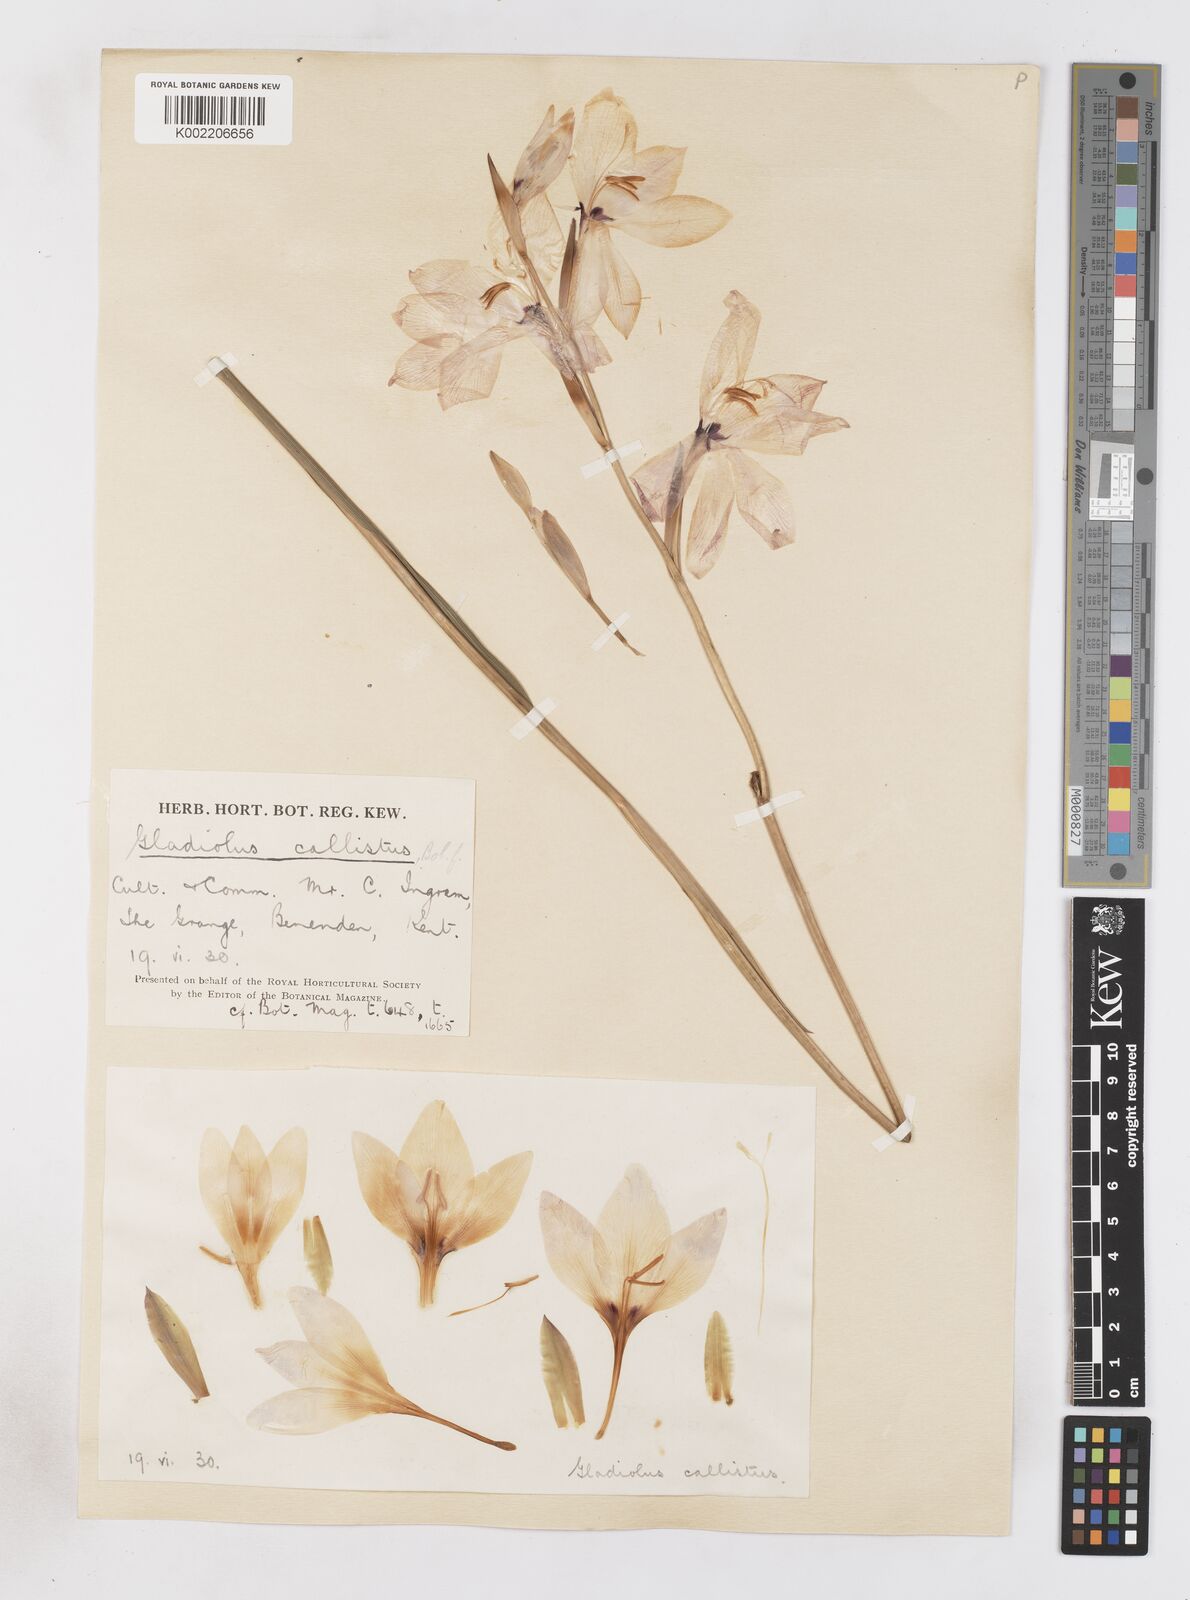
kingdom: Plantae
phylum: Tracheophyta
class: Liliopsida
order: Asparagales
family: Iridaceae
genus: Gladiolus
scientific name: Gladiolus carneus
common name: Painted-lady
